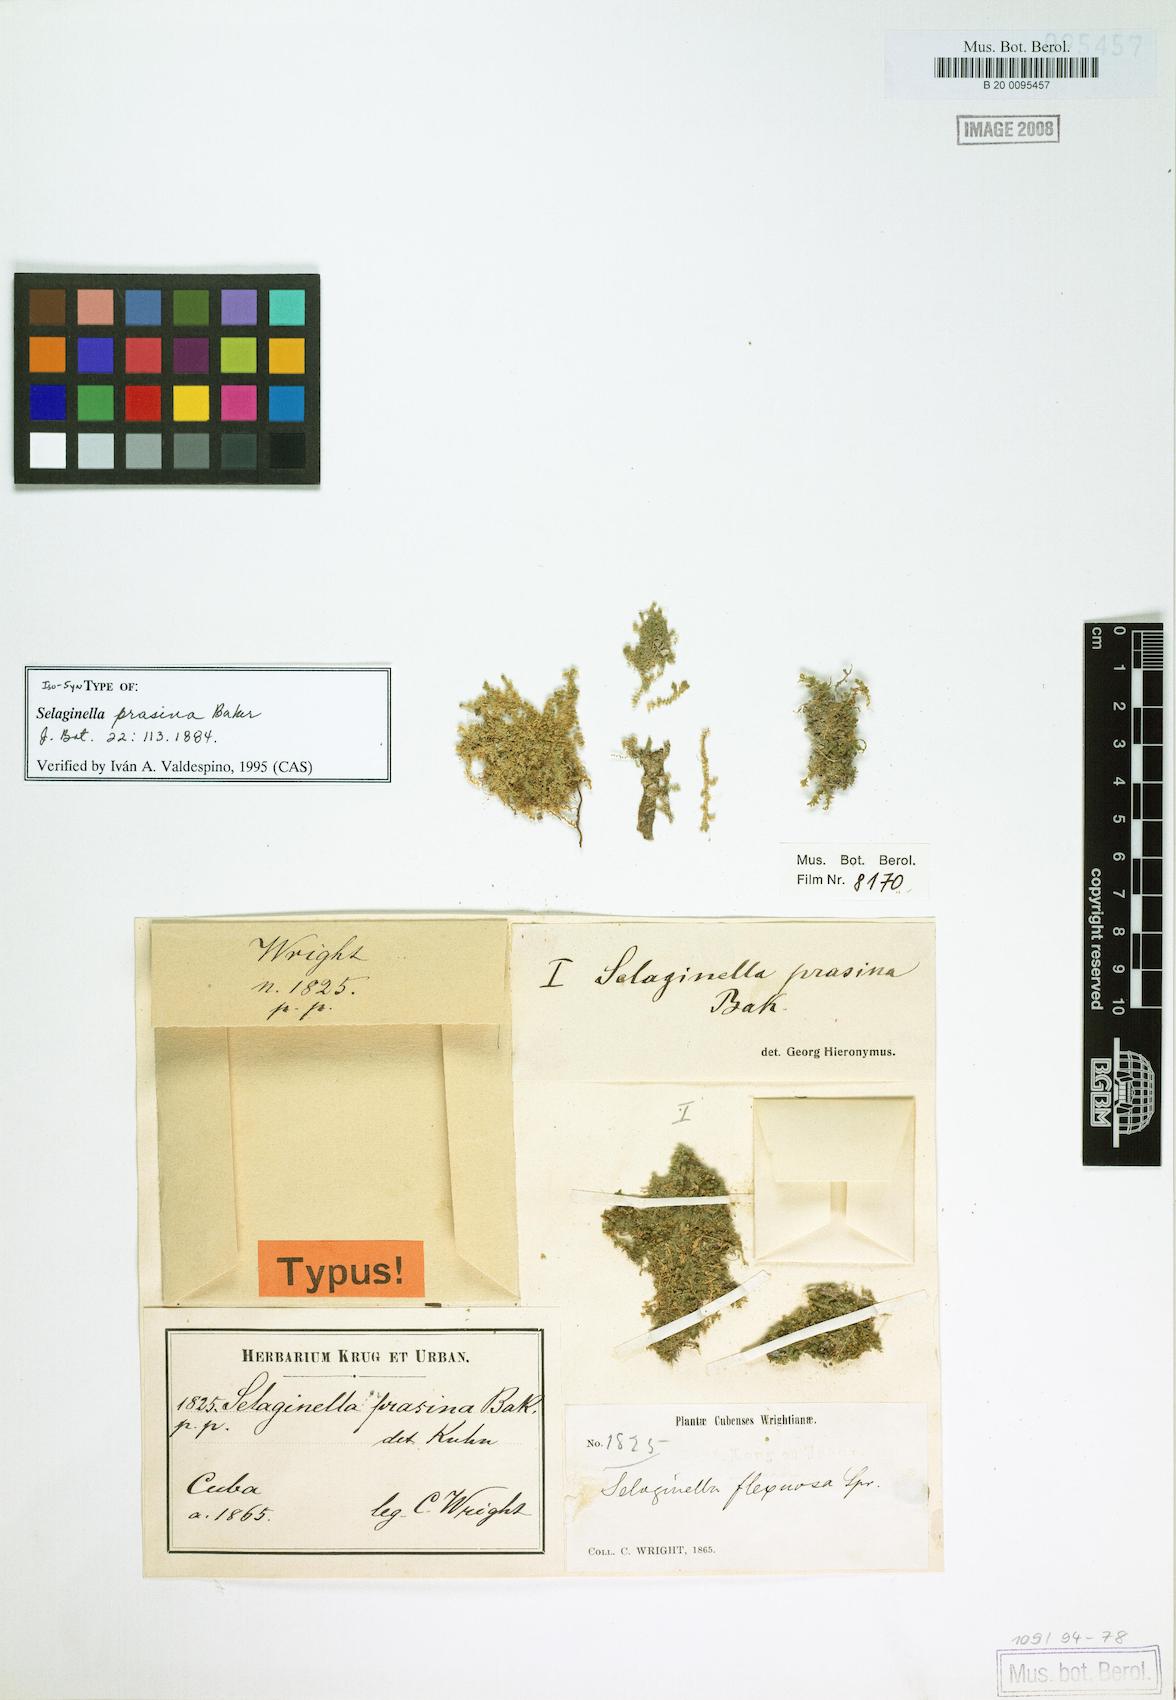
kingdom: Plantae
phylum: Tracheophyta
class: Lycopodiopsida
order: Selaginellales
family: Selaginellaceae
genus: Selaginella
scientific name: Selaginella prasina
